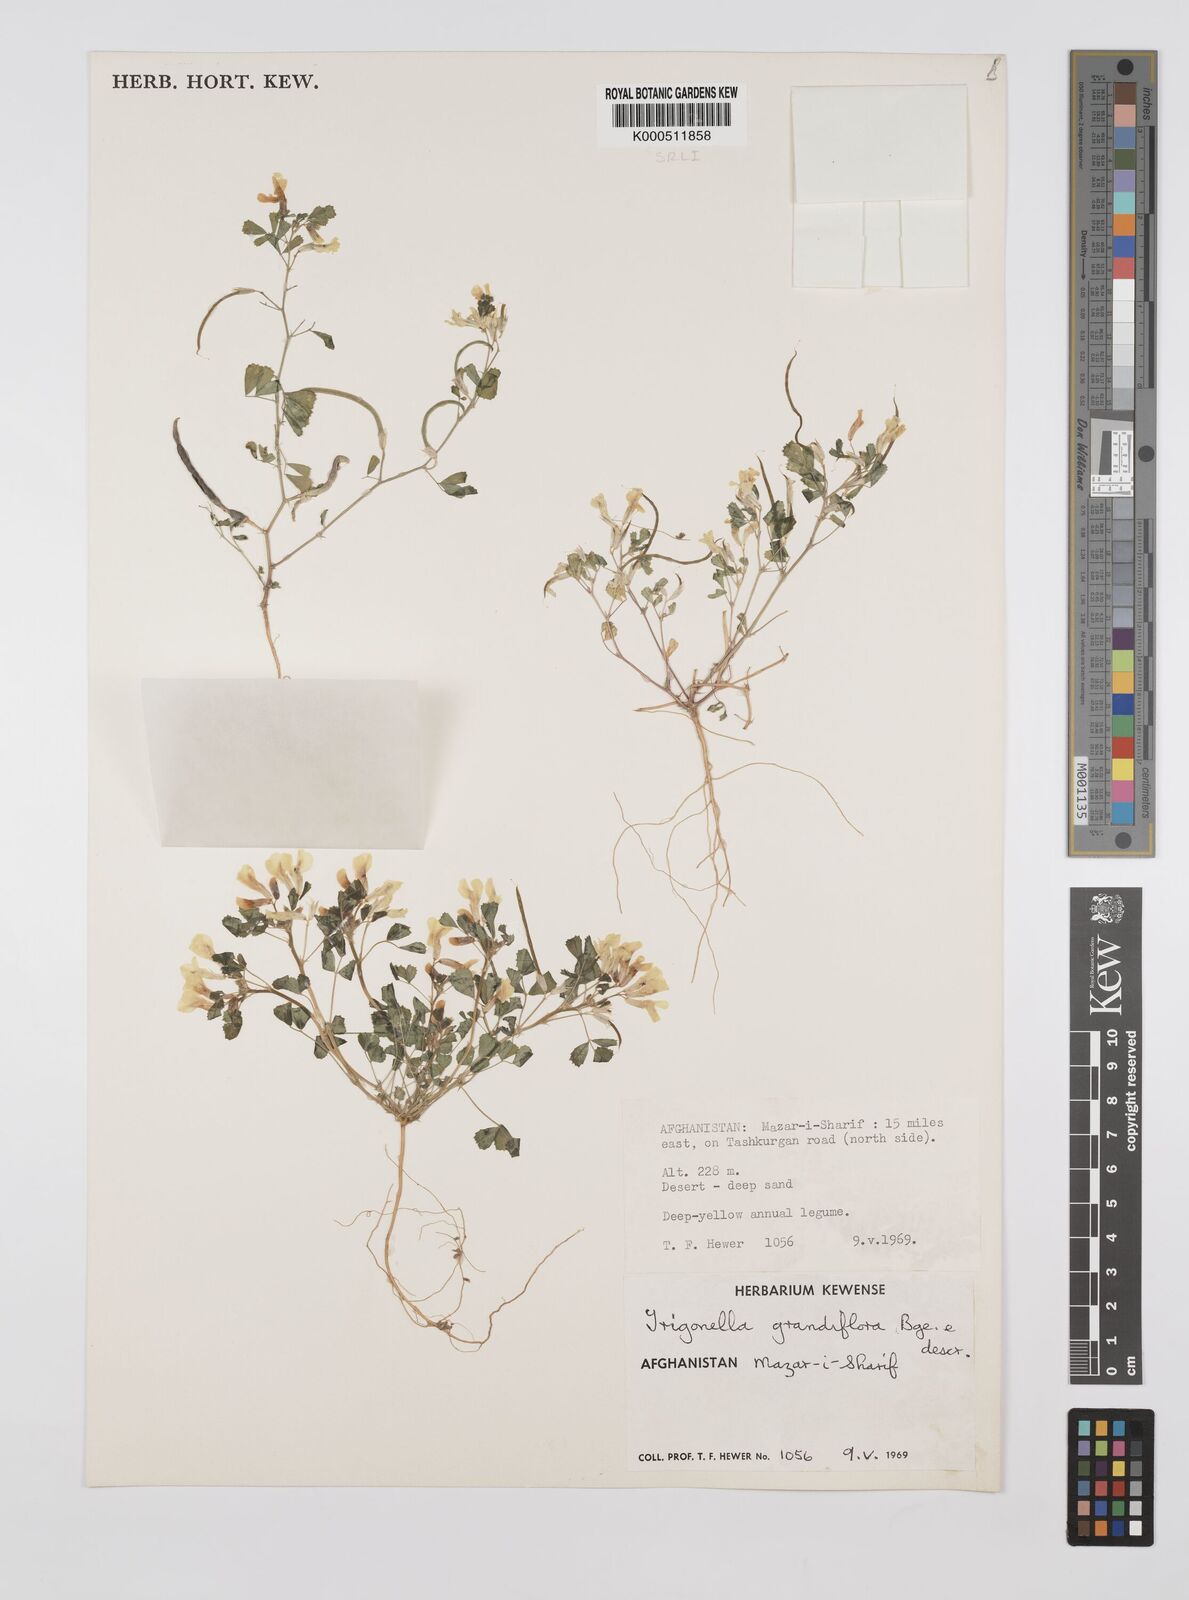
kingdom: Plantae
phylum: Tracheophyta
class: Magnoliopsida
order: Fabales
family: Fabaceae
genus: Trigonella
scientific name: Trigonella grandiflora
